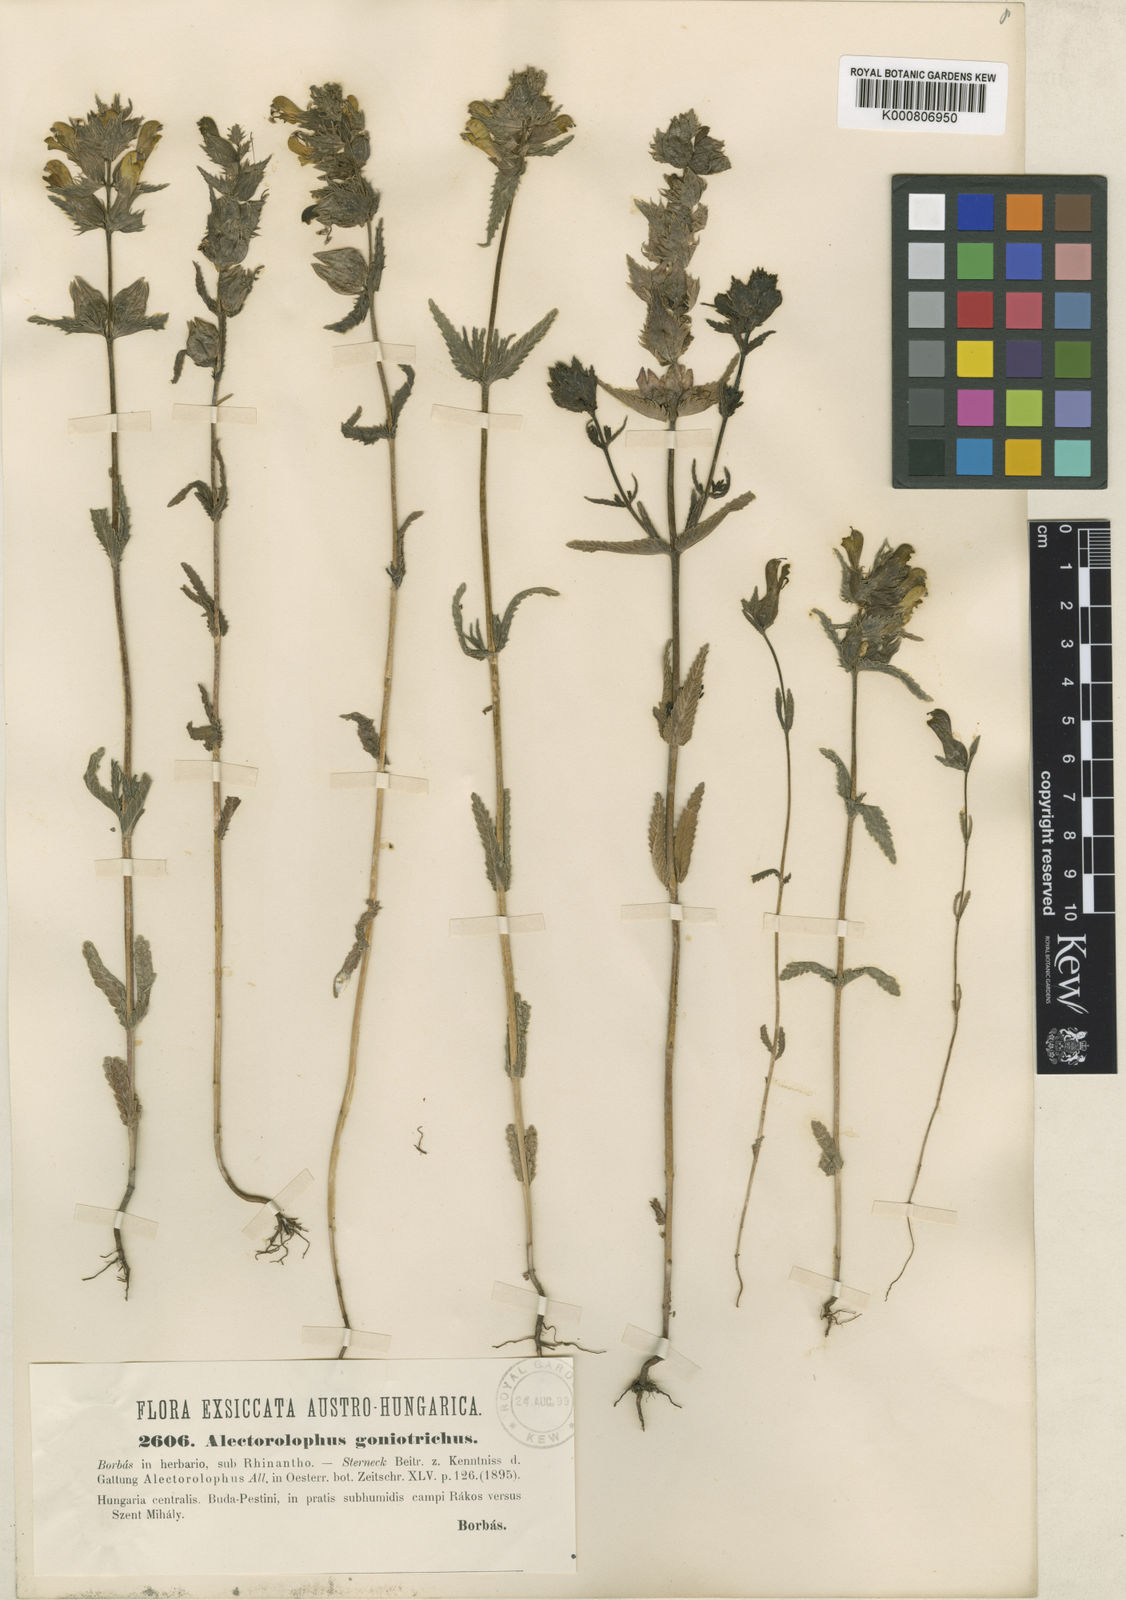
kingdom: Plantae
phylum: Tracheophyta
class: Magnoliopsida
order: Lamiales
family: Orobanchaceae
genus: Rhinanthus
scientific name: Rhinanthus
